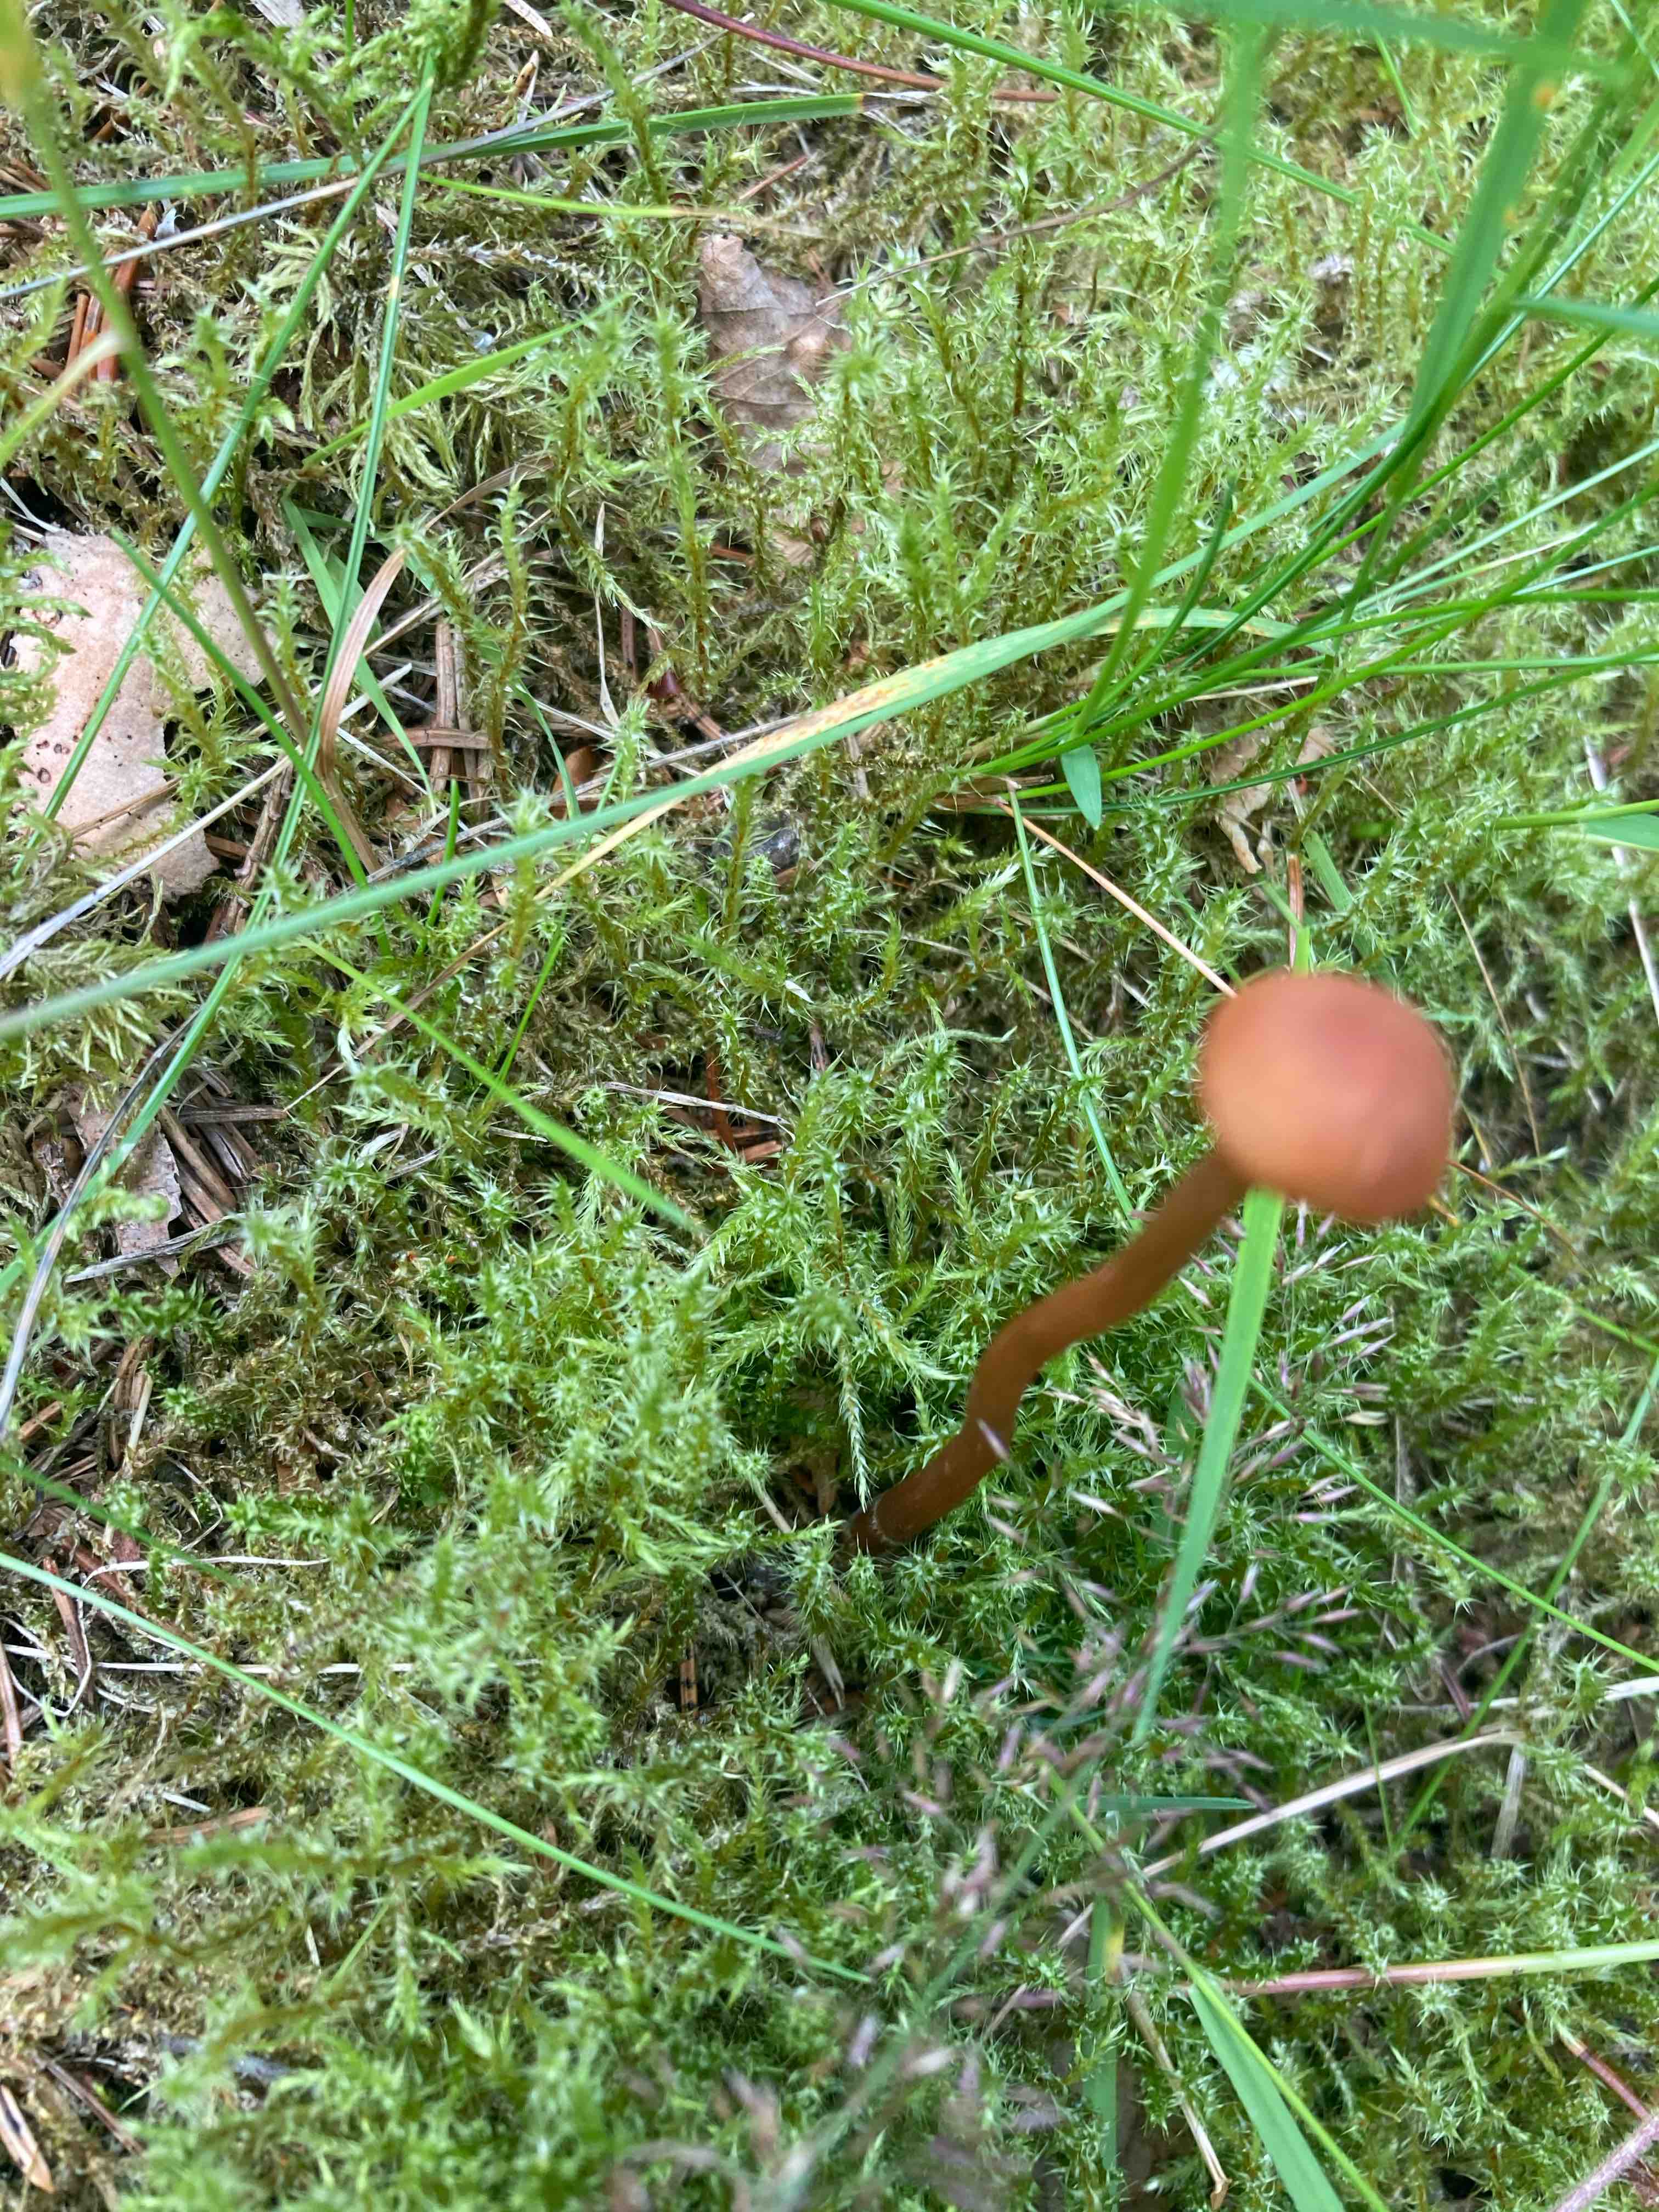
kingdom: Fungi
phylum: Basidiomycota
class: Agaricomycetes
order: Agaricales
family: Hydnangiaceae
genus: Laccaria
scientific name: Laccaria laccata
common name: rød ametysthat
